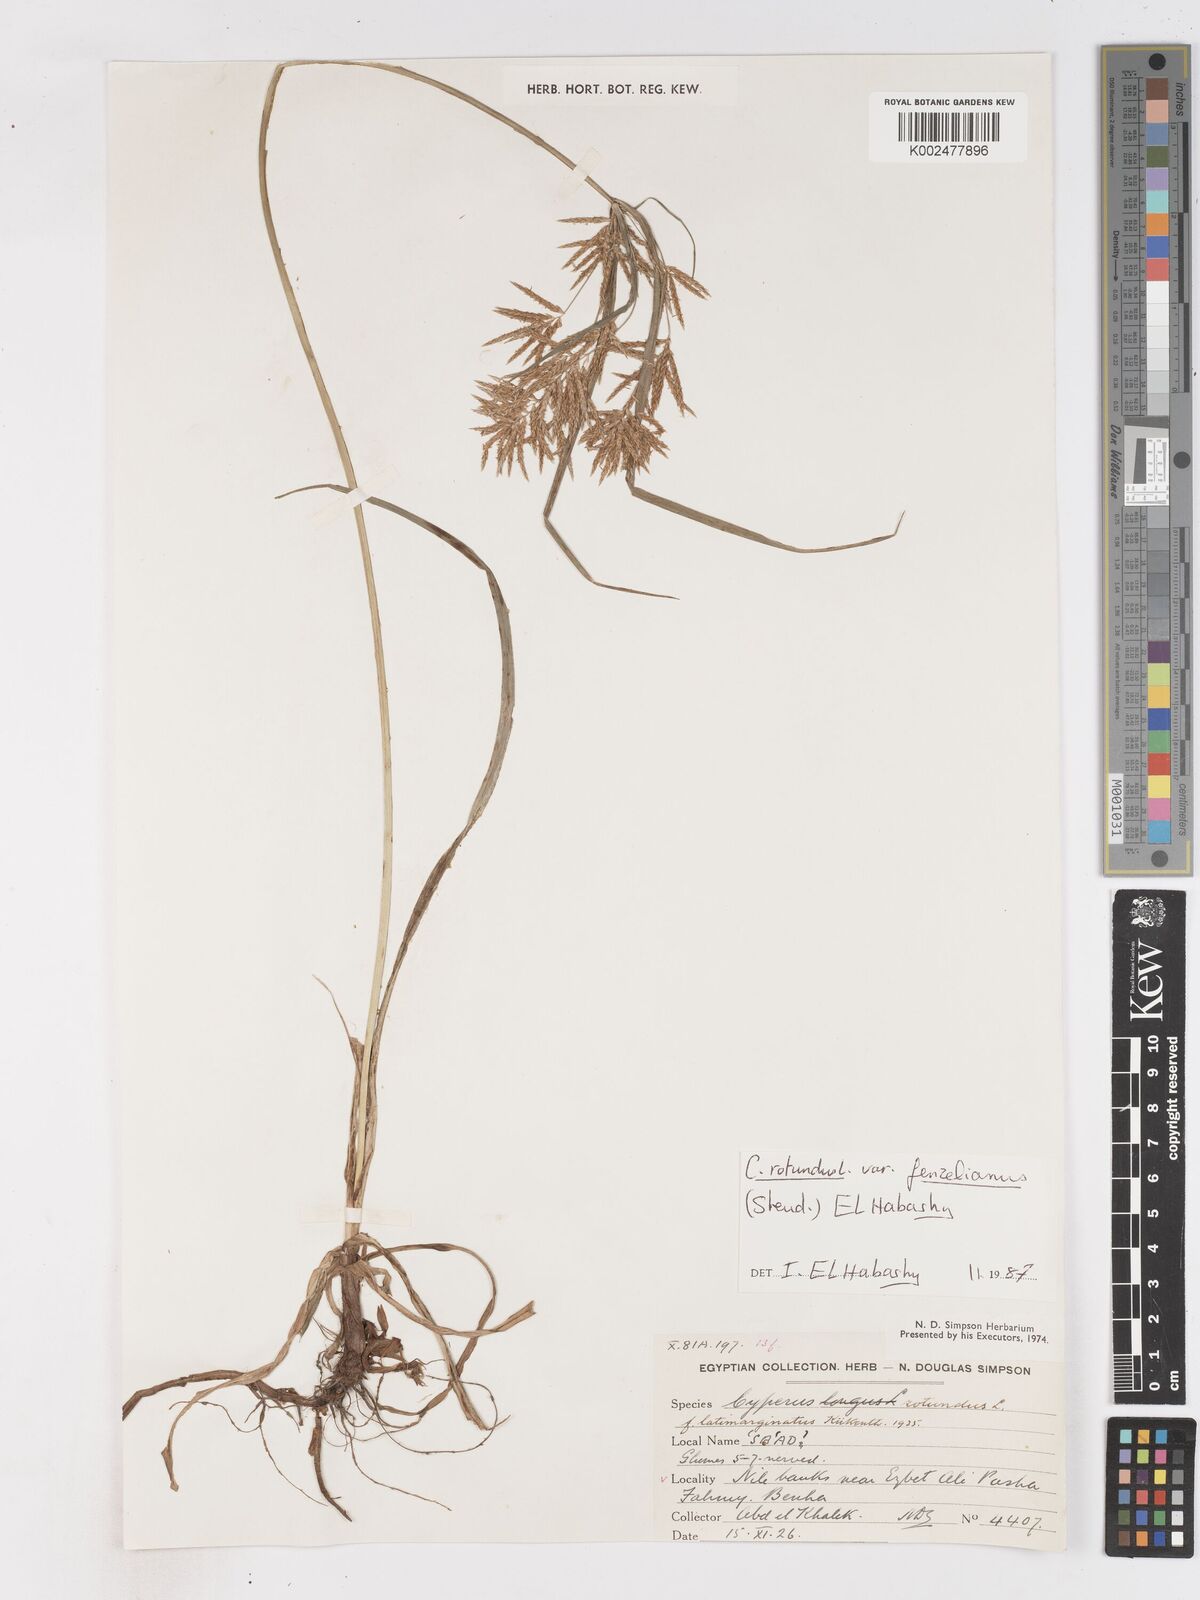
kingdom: Plantae
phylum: Tracheophyta
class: Liliopsida
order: Poales
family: Cyperaceae
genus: Cyperus
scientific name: Cyperus longus
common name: Galingale
